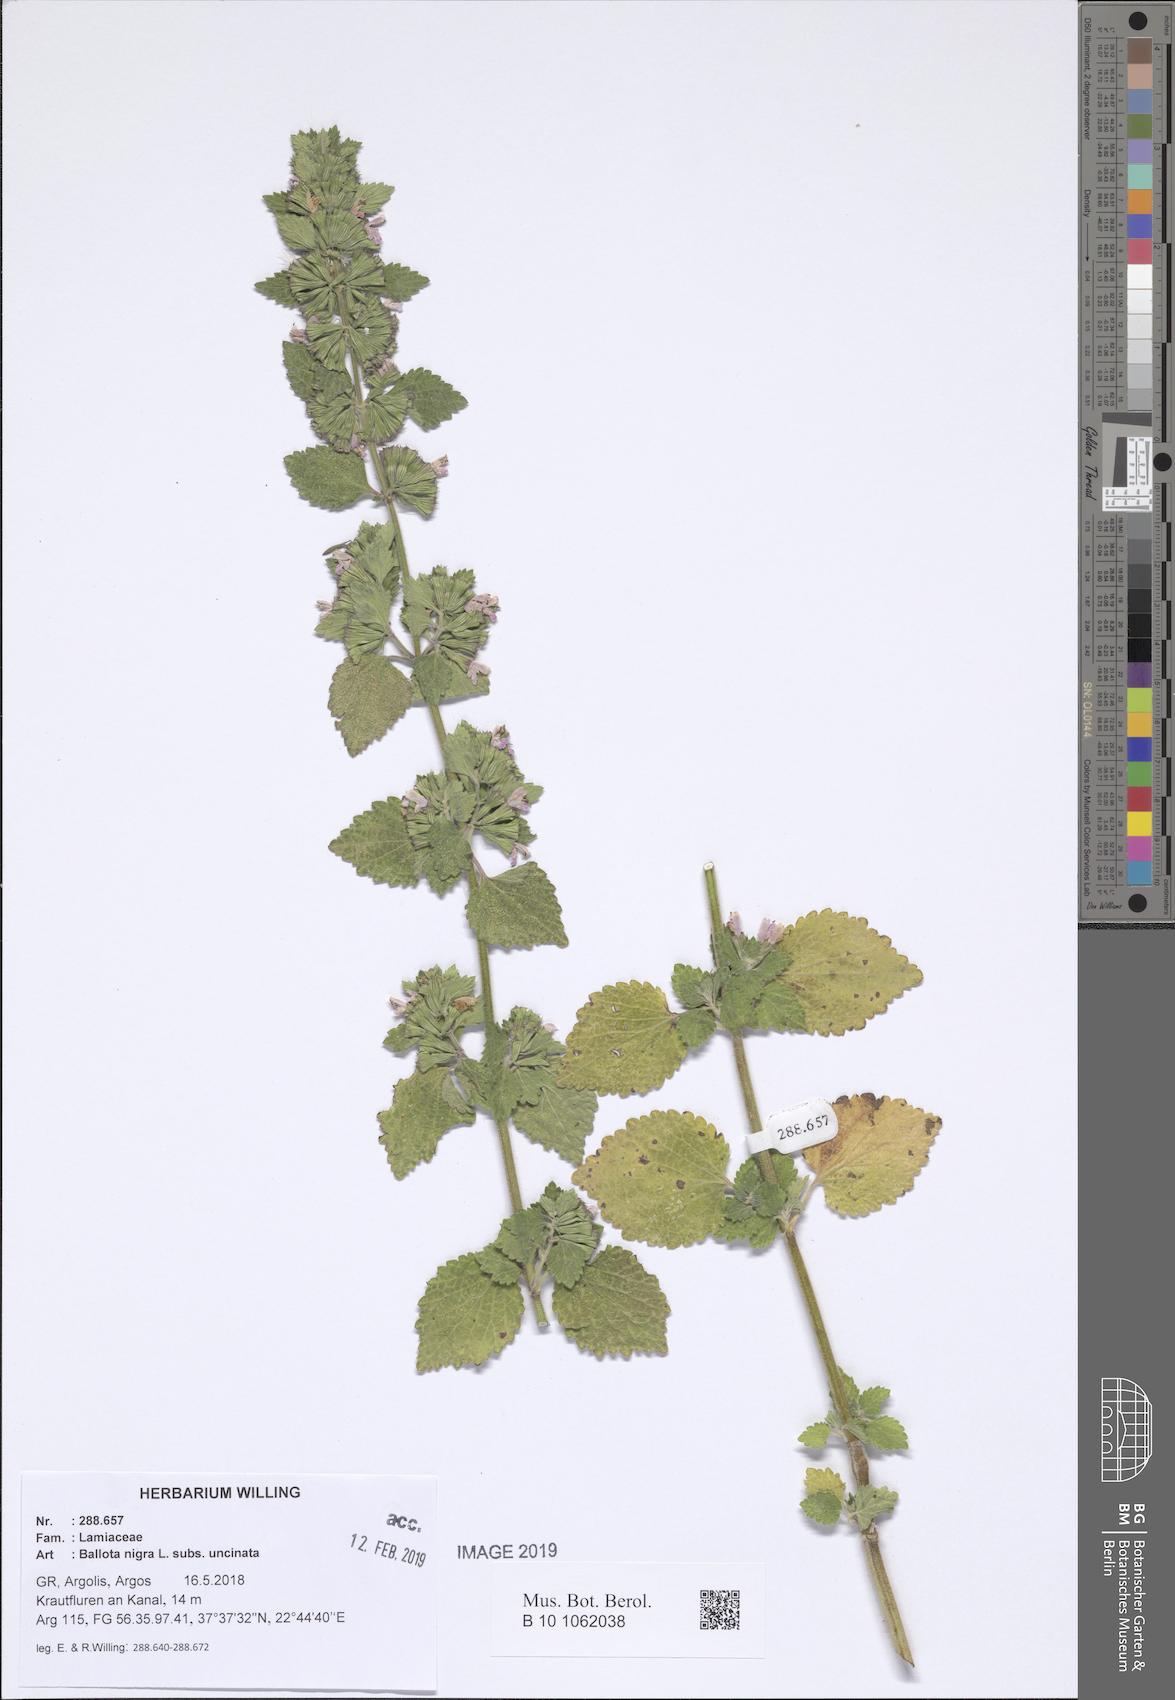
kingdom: Plantae
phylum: Tracheophyta
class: Magnoliopsida
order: Lamiales
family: Lamiaceae
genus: Ballota
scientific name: Ballota nigra
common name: Black horehound
